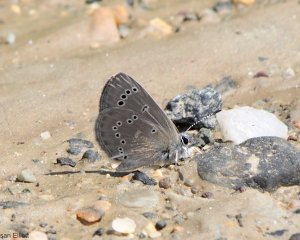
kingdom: Animalia
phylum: Arthropoda
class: Insecta
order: Lepidoptera
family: Lycaenidae
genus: Glaucopsyche
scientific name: Glaucopsyche lygdamus
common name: Silvery Blue
